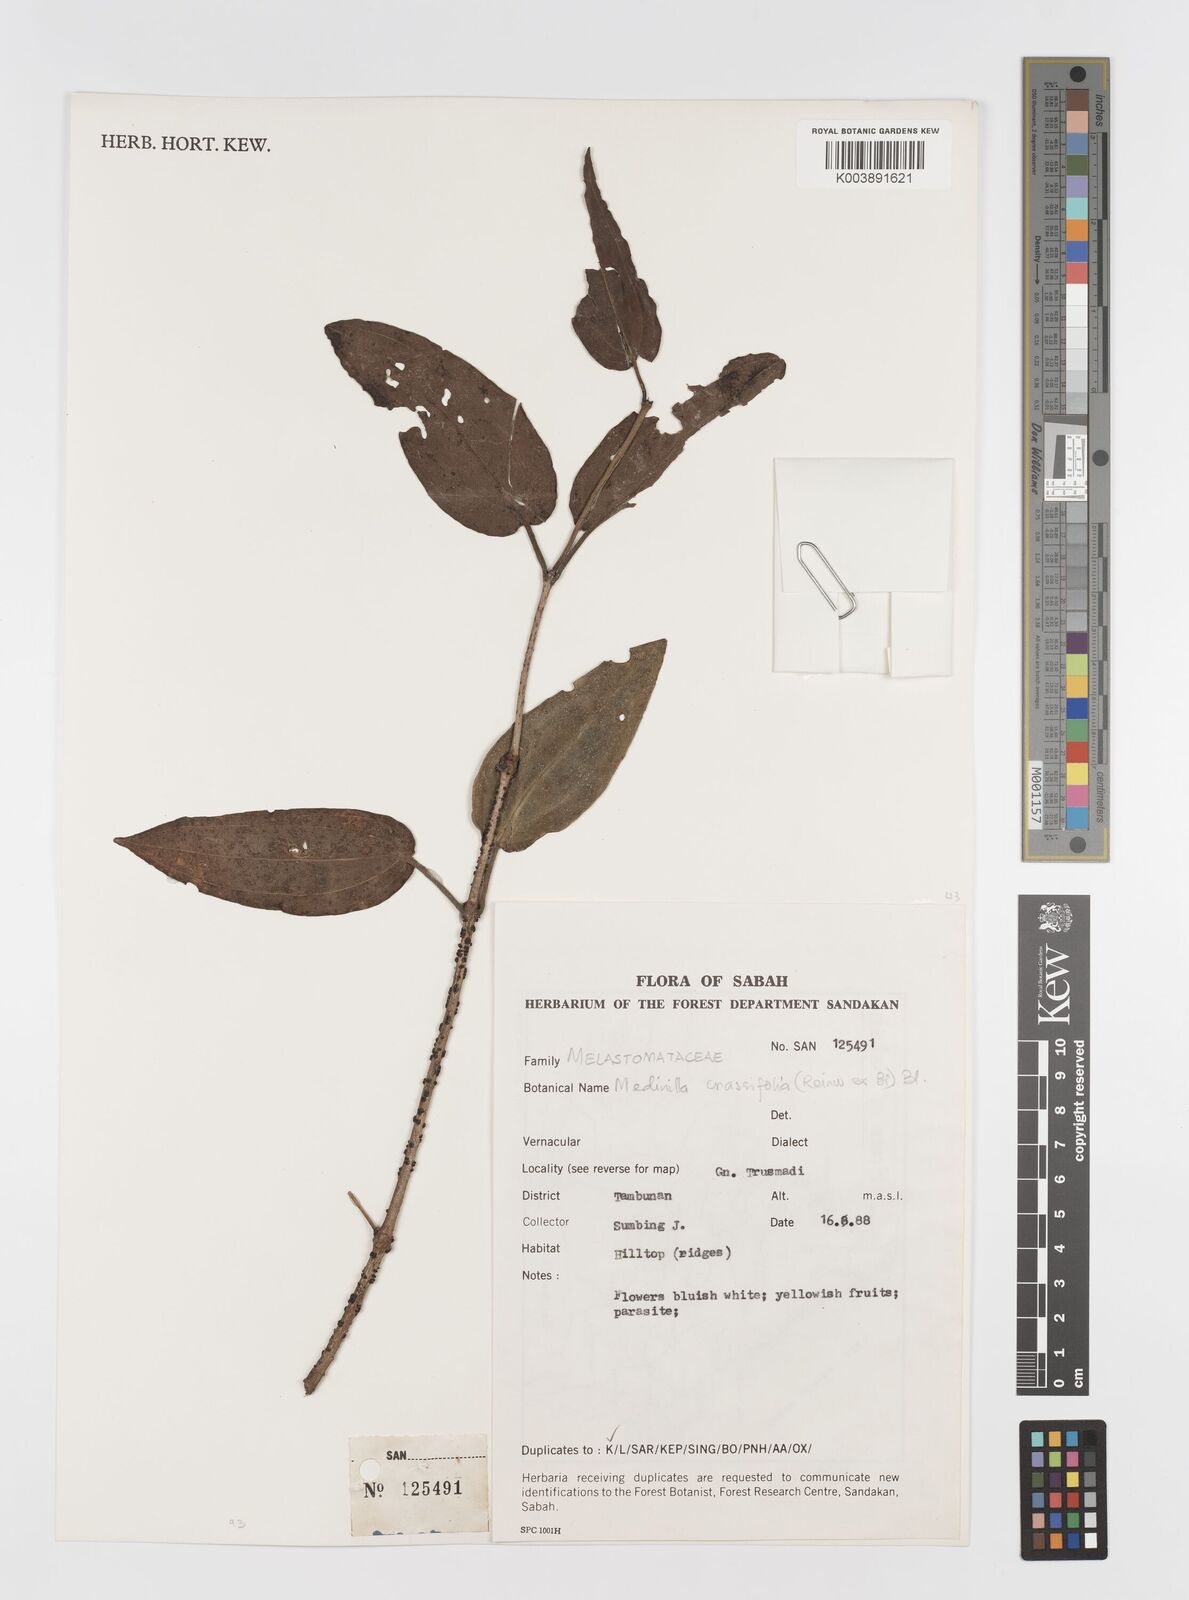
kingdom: Plantae
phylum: Tracheophyta
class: Magnoliopsida
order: Myrtales
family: Melastomataceae
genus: Medinilla
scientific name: Medinilla crassifolia
